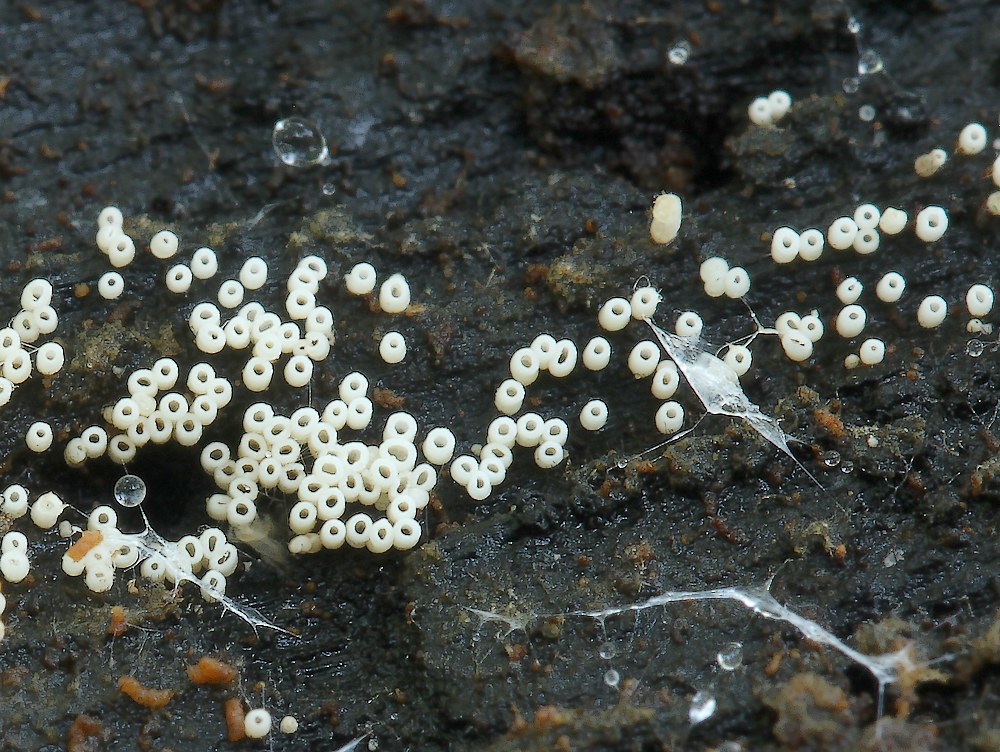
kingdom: Fungi
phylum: Basidiomycota
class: Agaricomycetes
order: Agaricales
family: Marasmiaceae
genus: Henningsomyces
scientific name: Henningsomyces candidus
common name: glat hængerør
